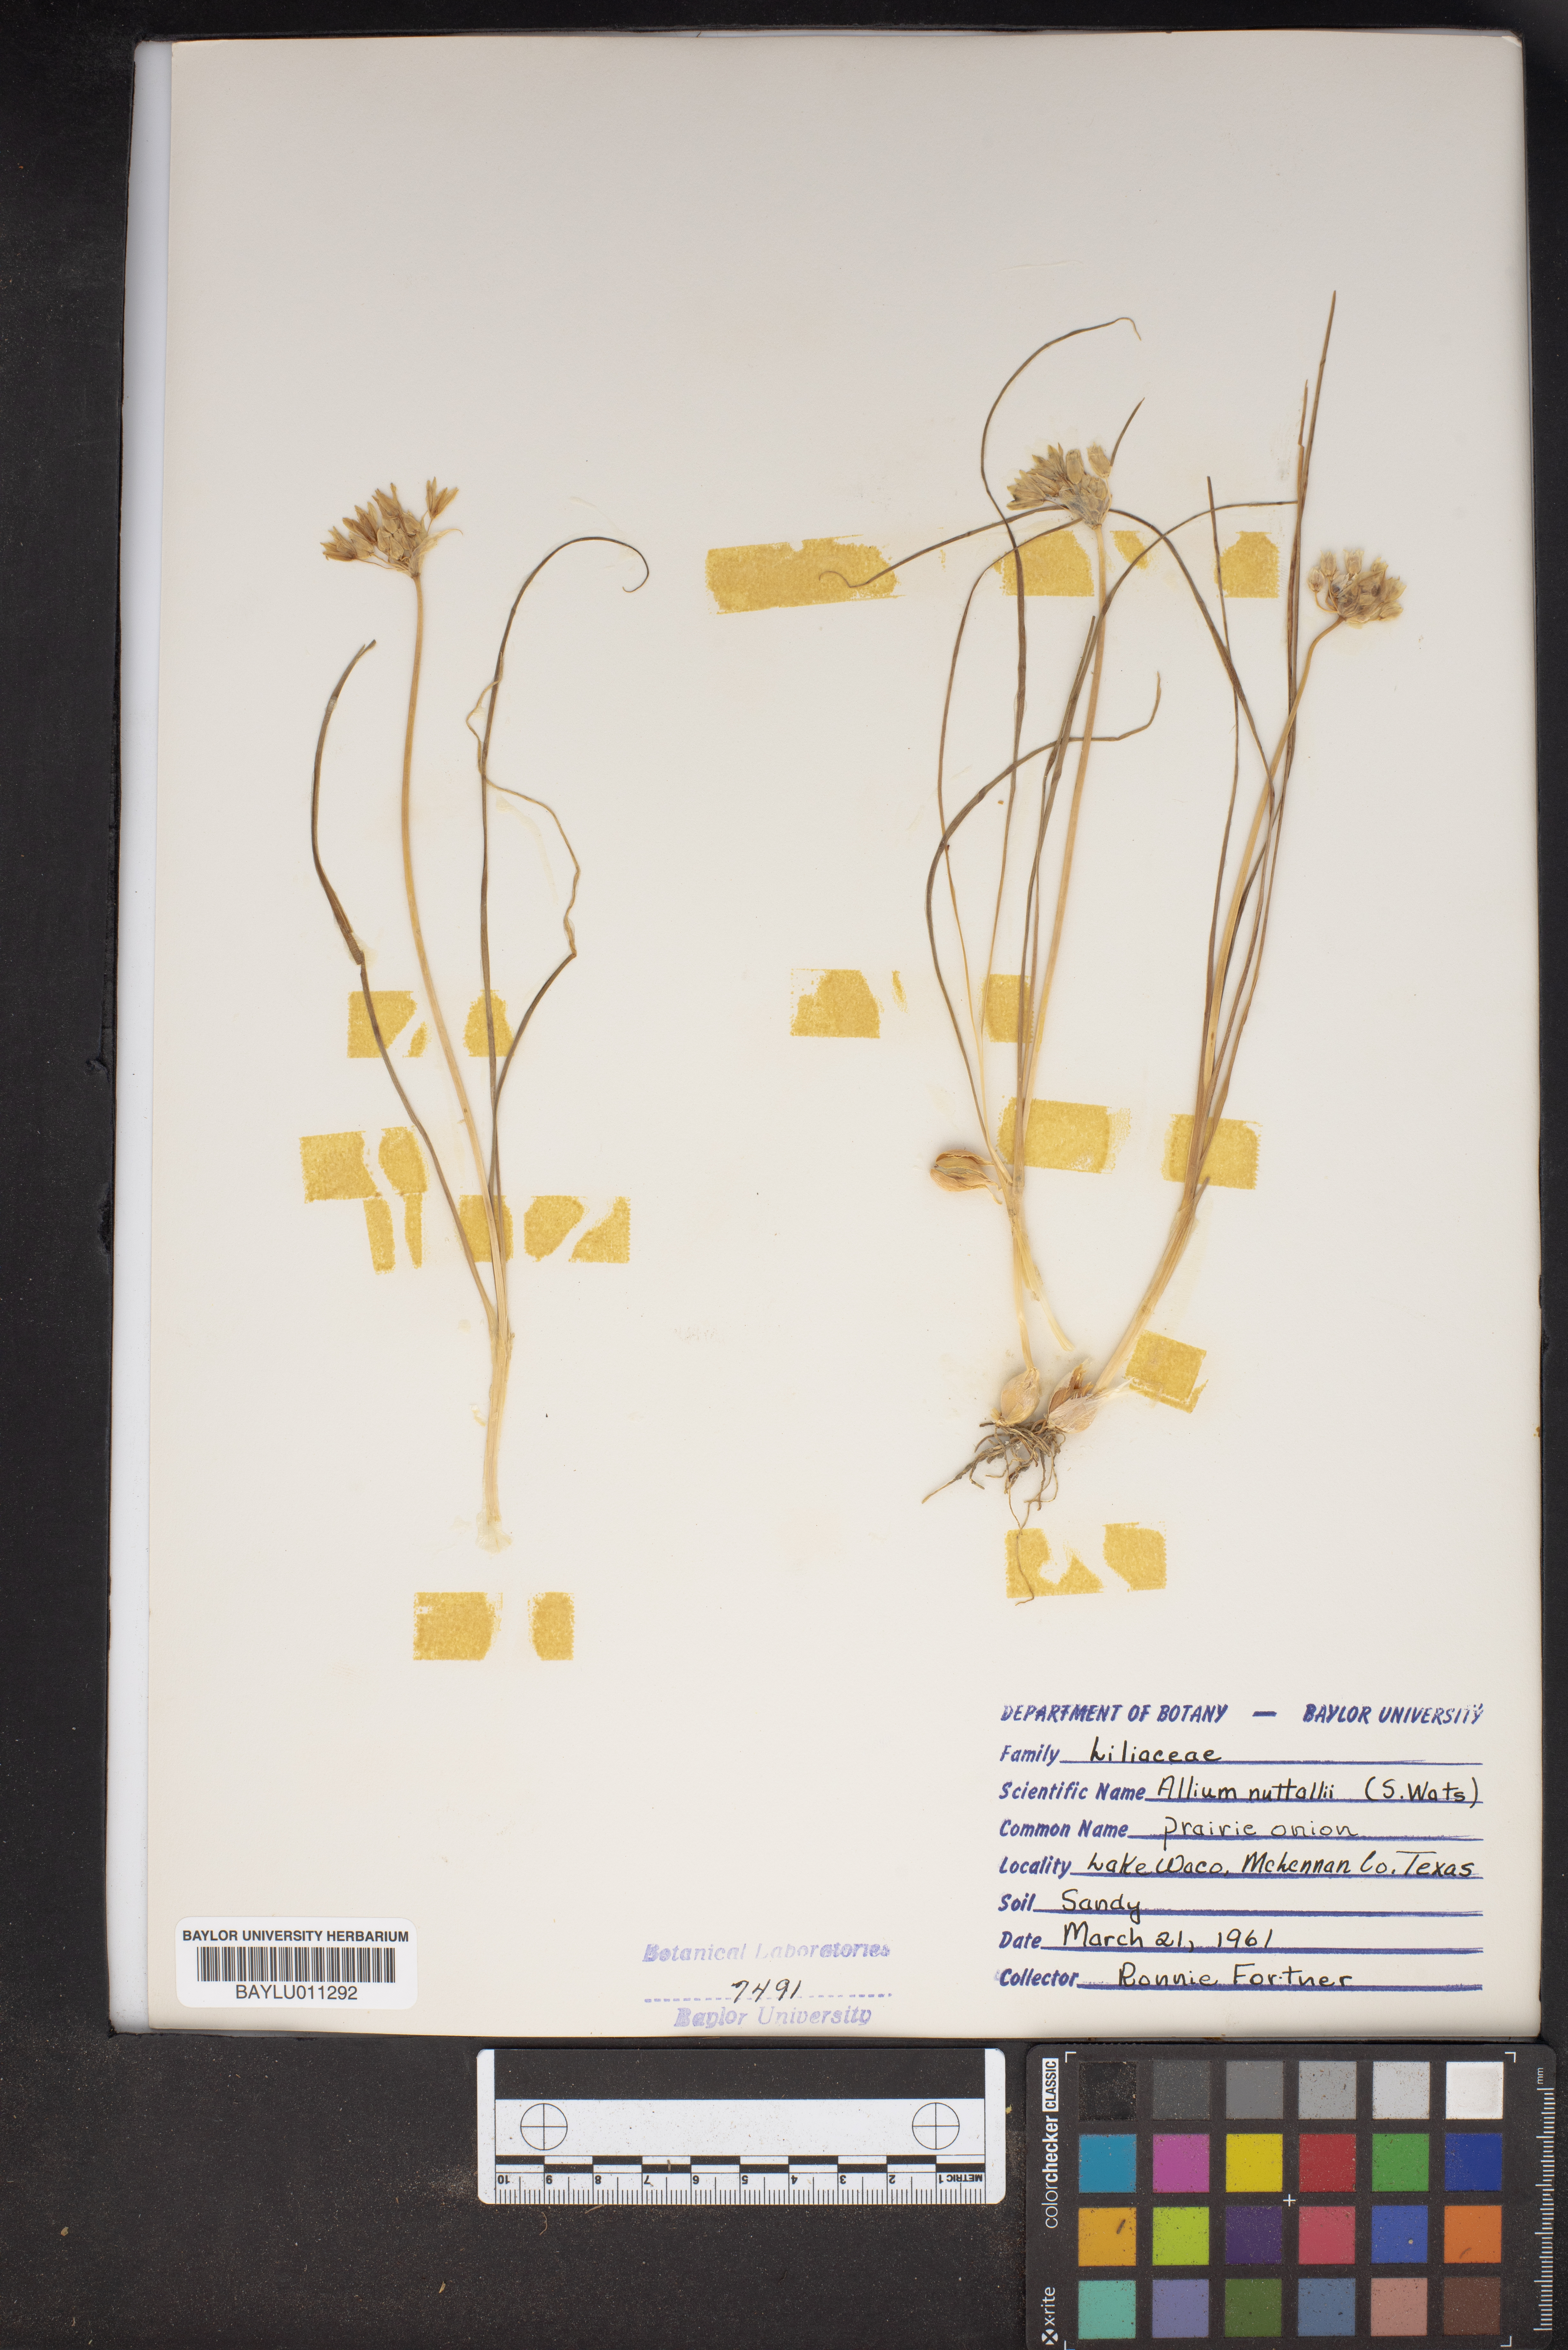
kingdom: Plantae
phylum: Tracheophyta
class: Liliopsida
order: Asparagales
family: Amaryllidaceae
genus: Allium
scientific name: Allium drummondii
